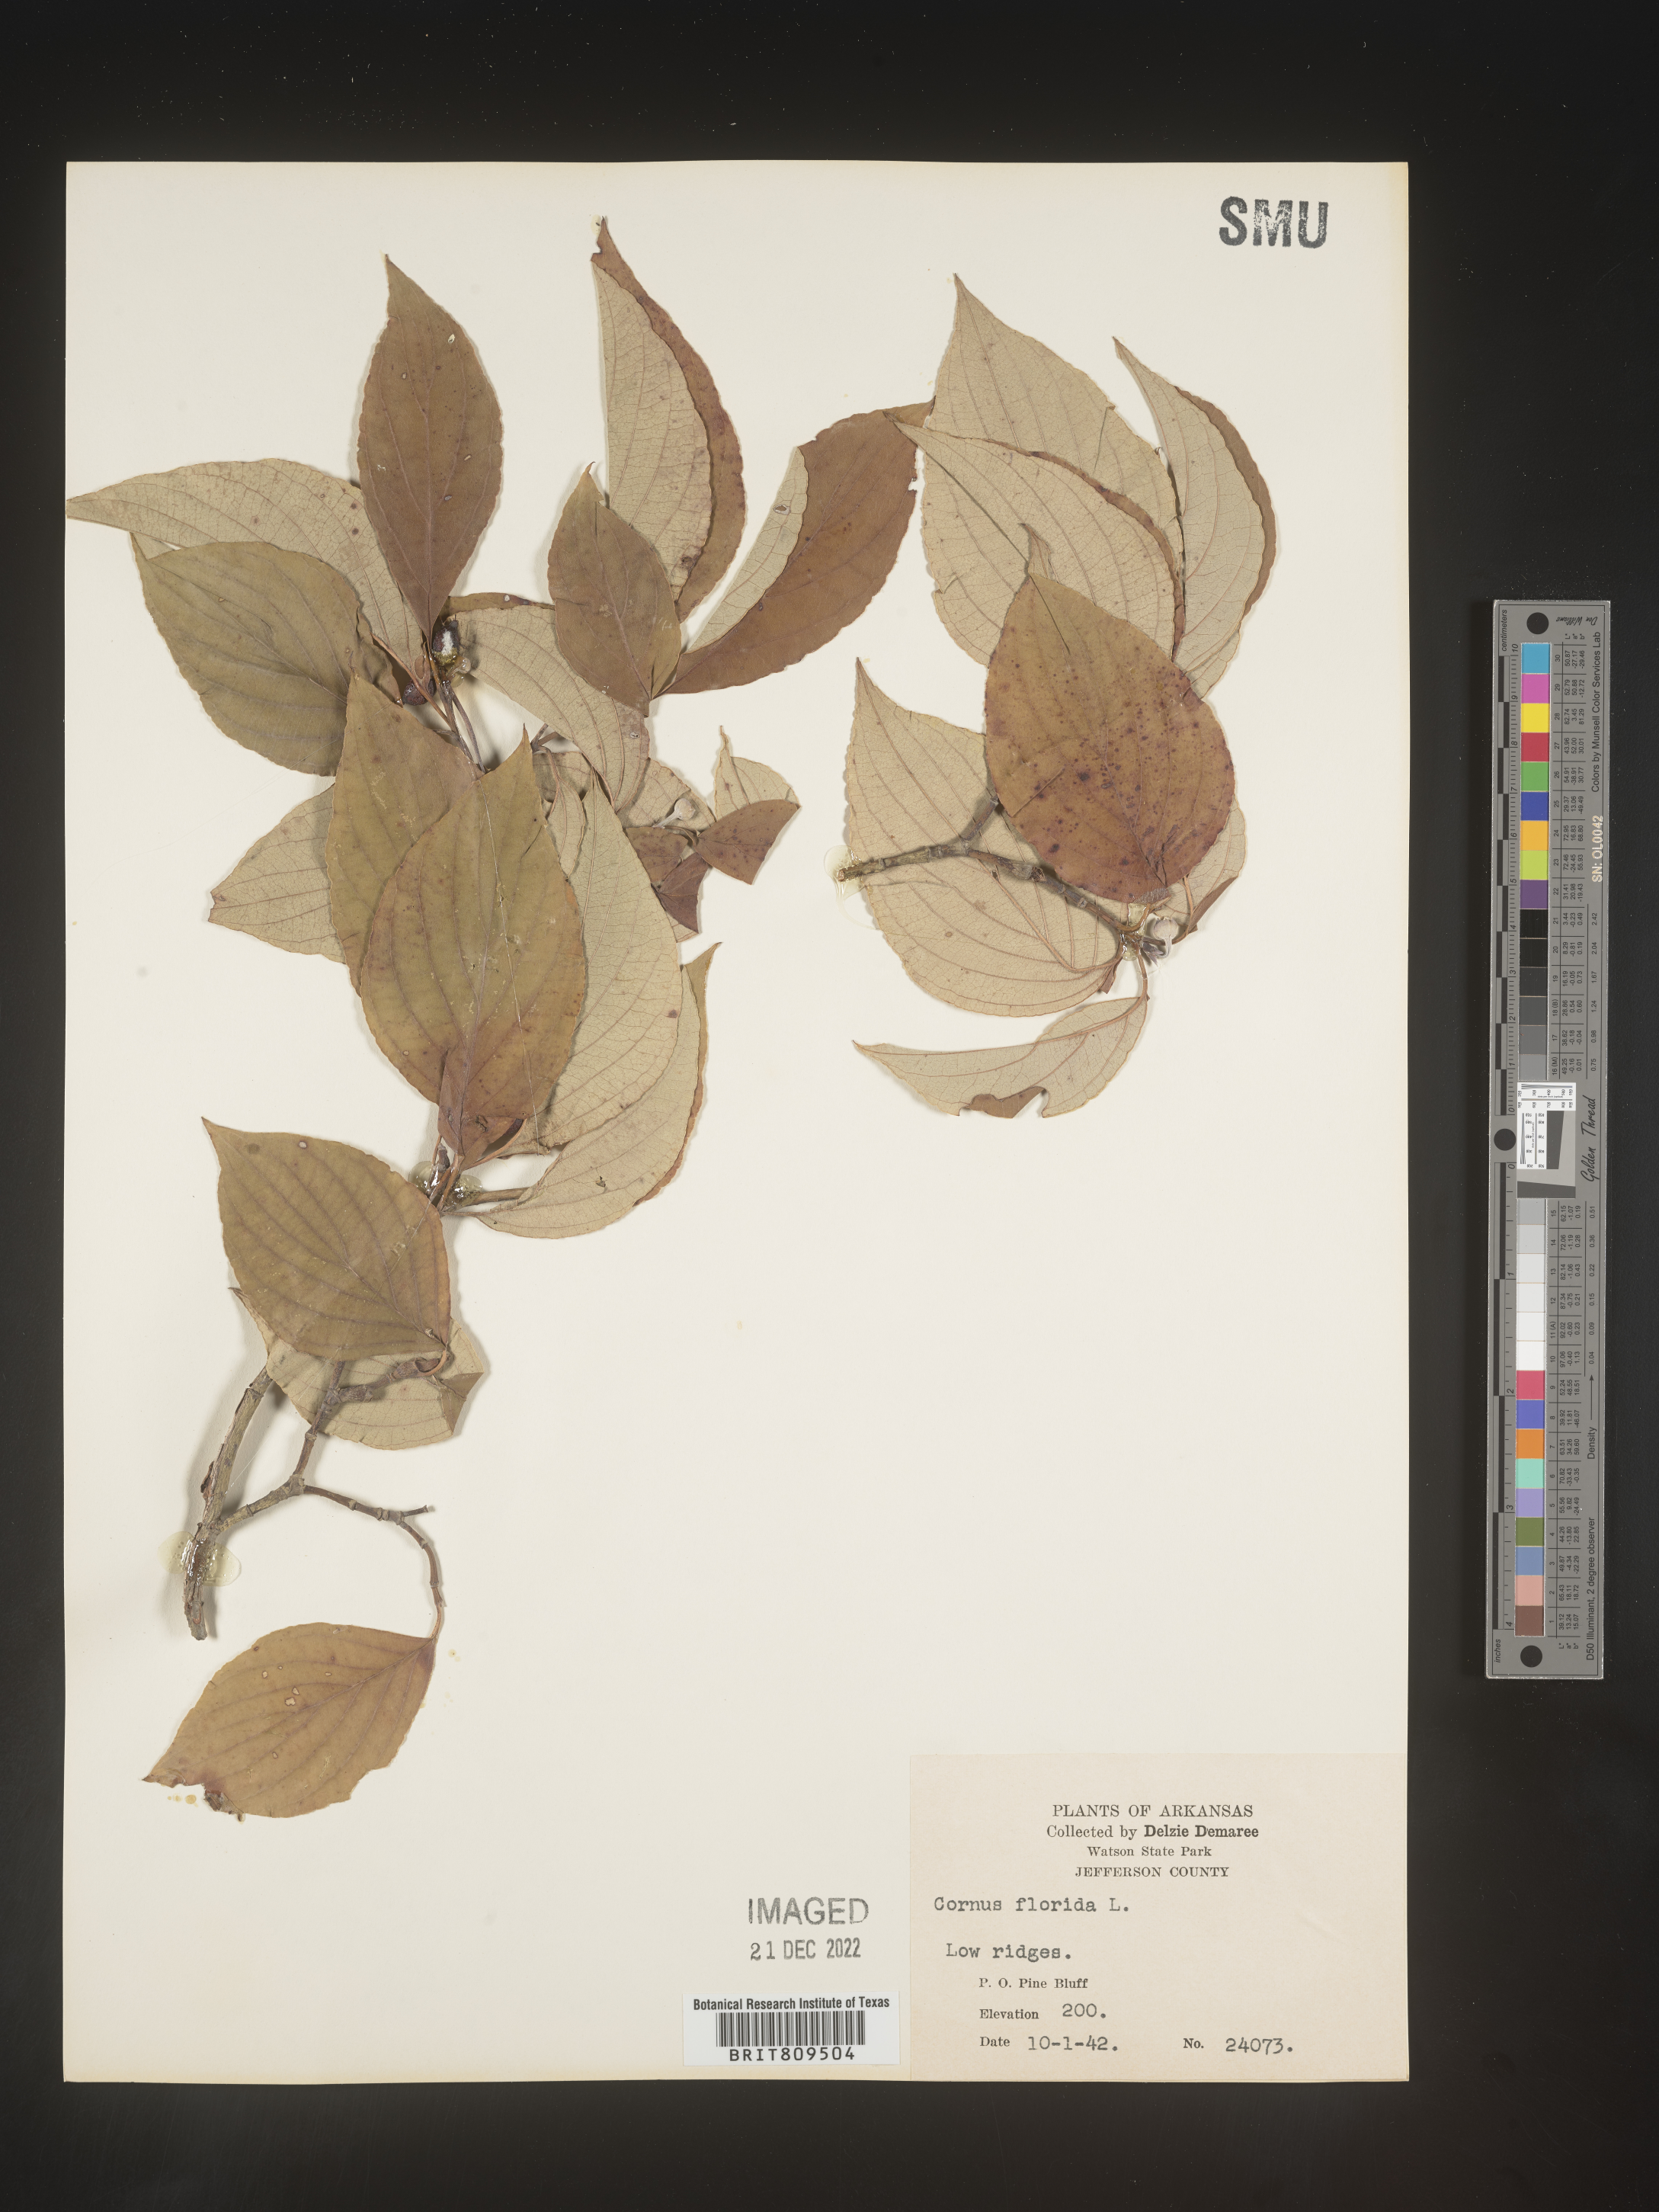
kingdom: Plantae
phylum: Tracheophyta
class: Magnoliopsida
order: Cornales
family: Cornaceae
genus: Cornus
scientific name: Cornus florida
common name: Flowering dogwood
